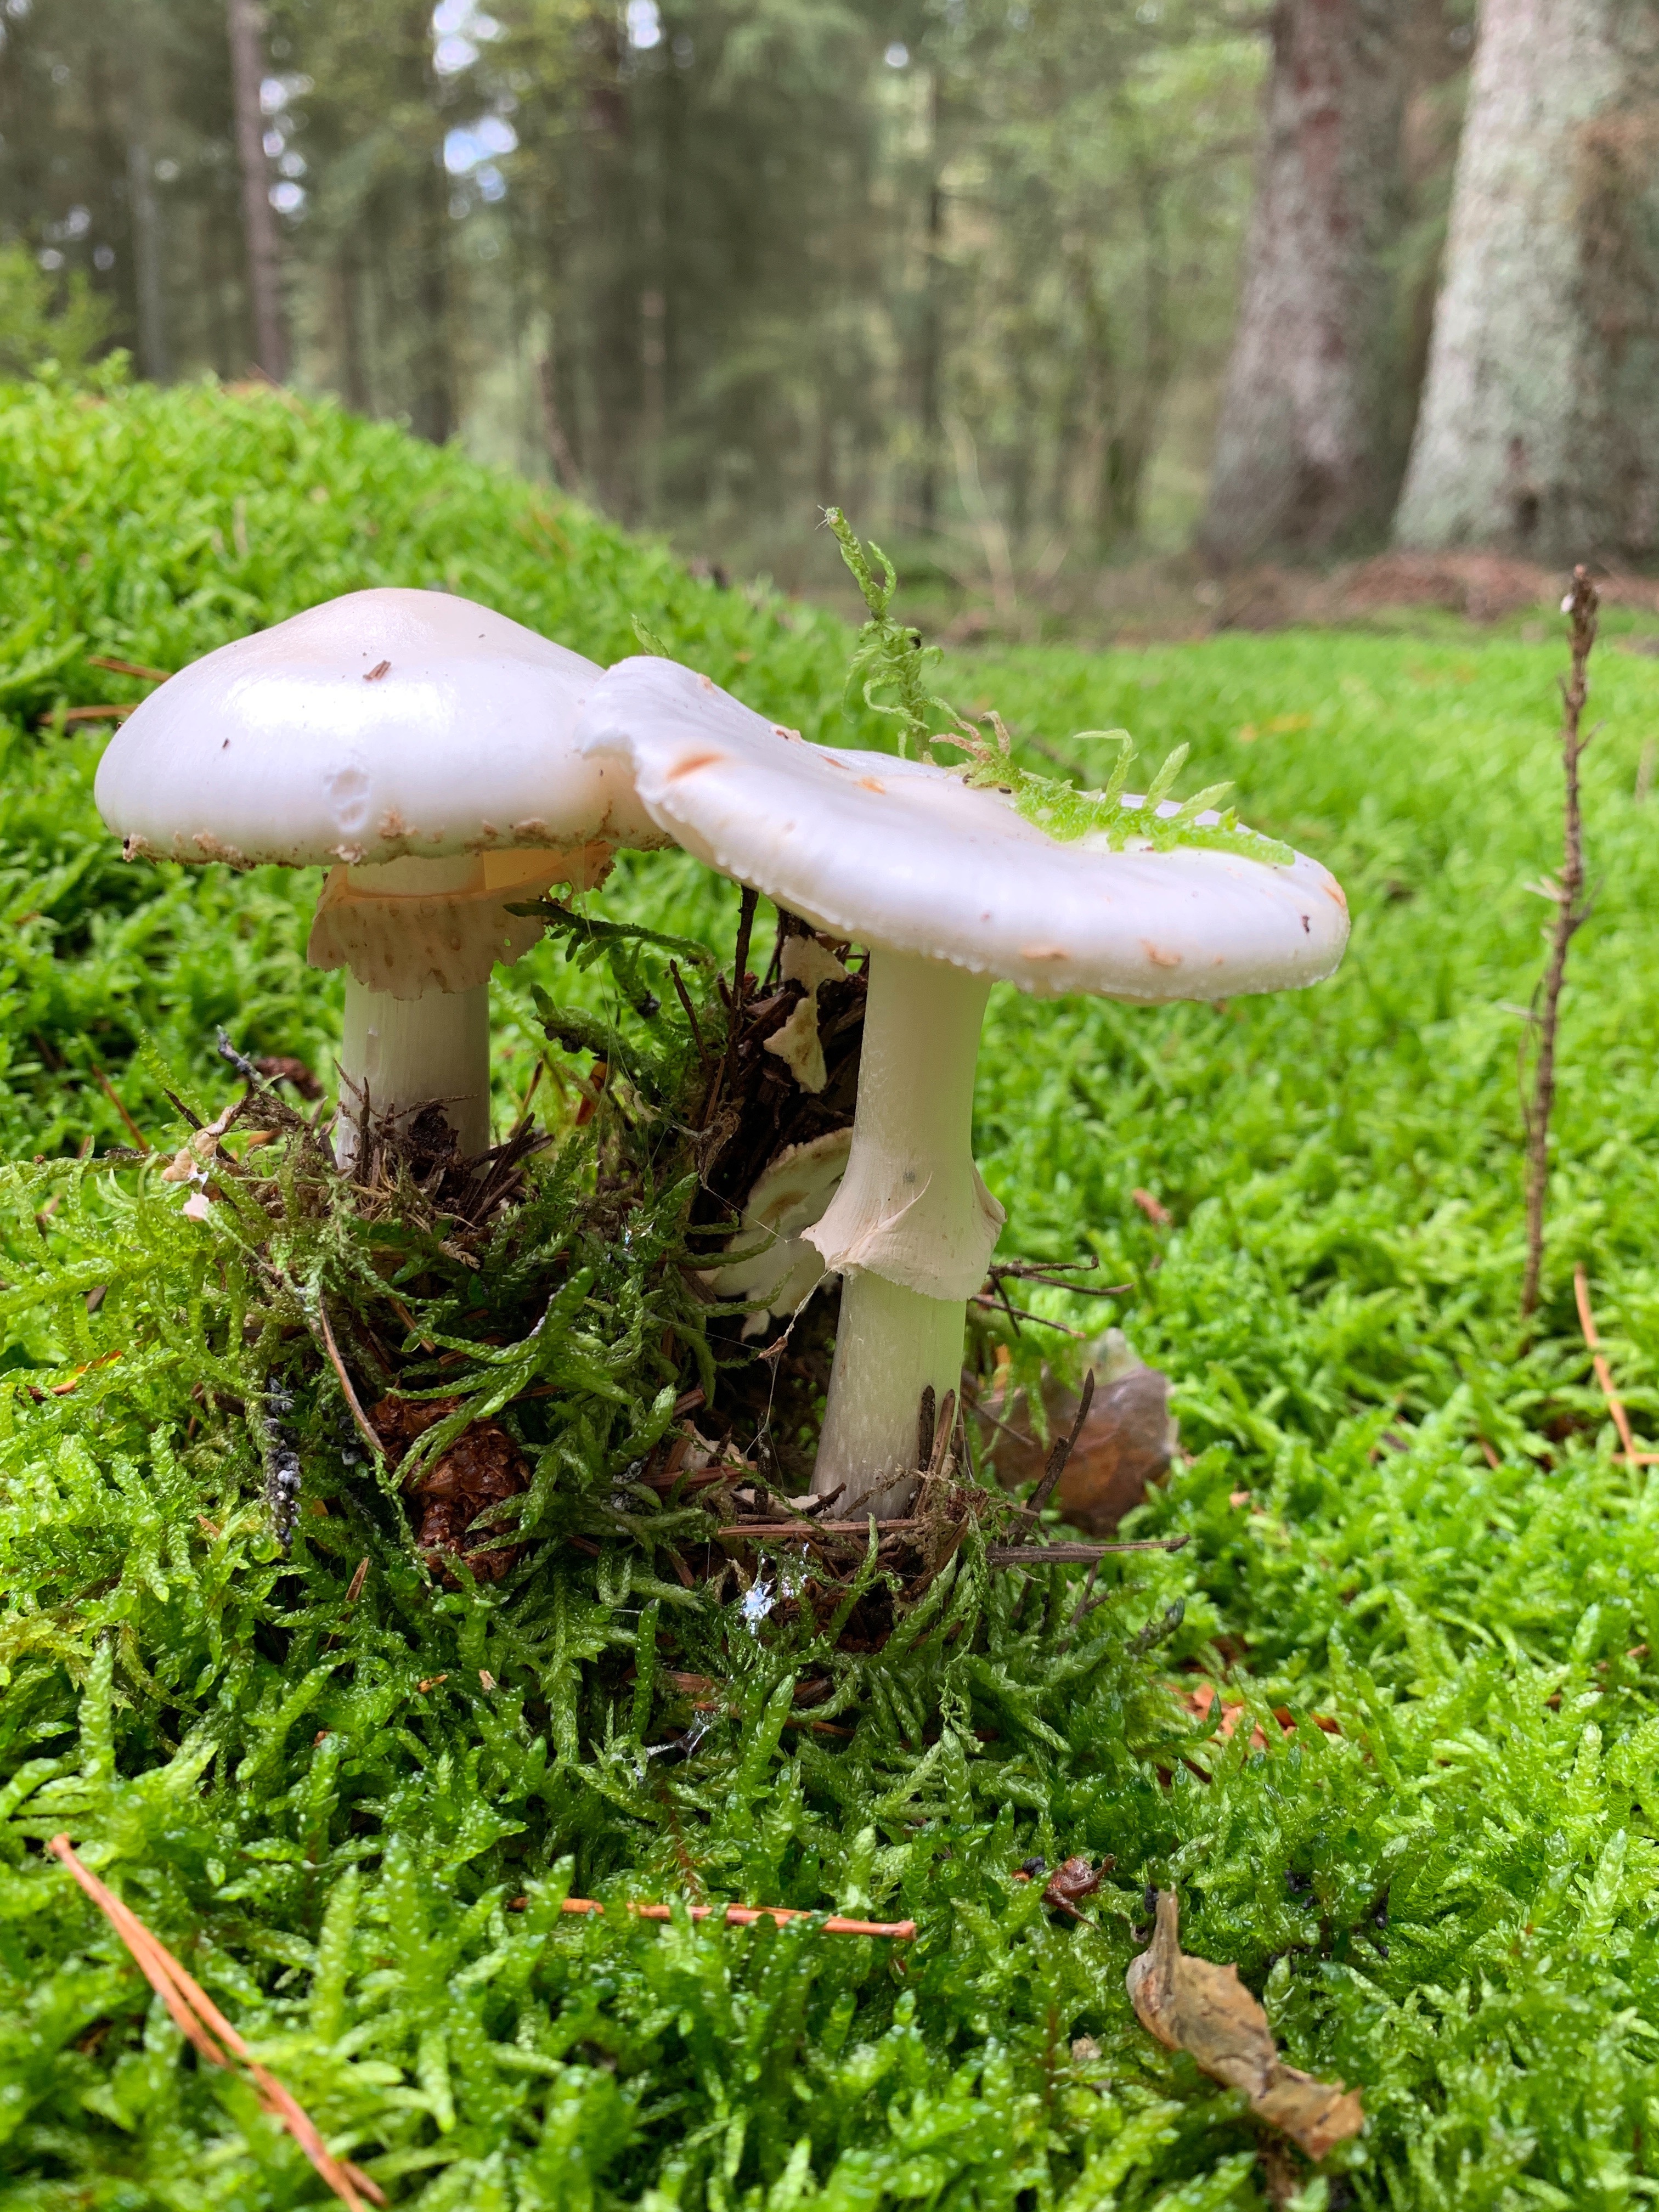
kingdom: Fungi
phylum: Basidiomycota
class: Agaricomycetes
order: Agaricales
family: Amanitaceae
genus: Amanita
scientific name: Amanita citrina
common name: False death-cap
